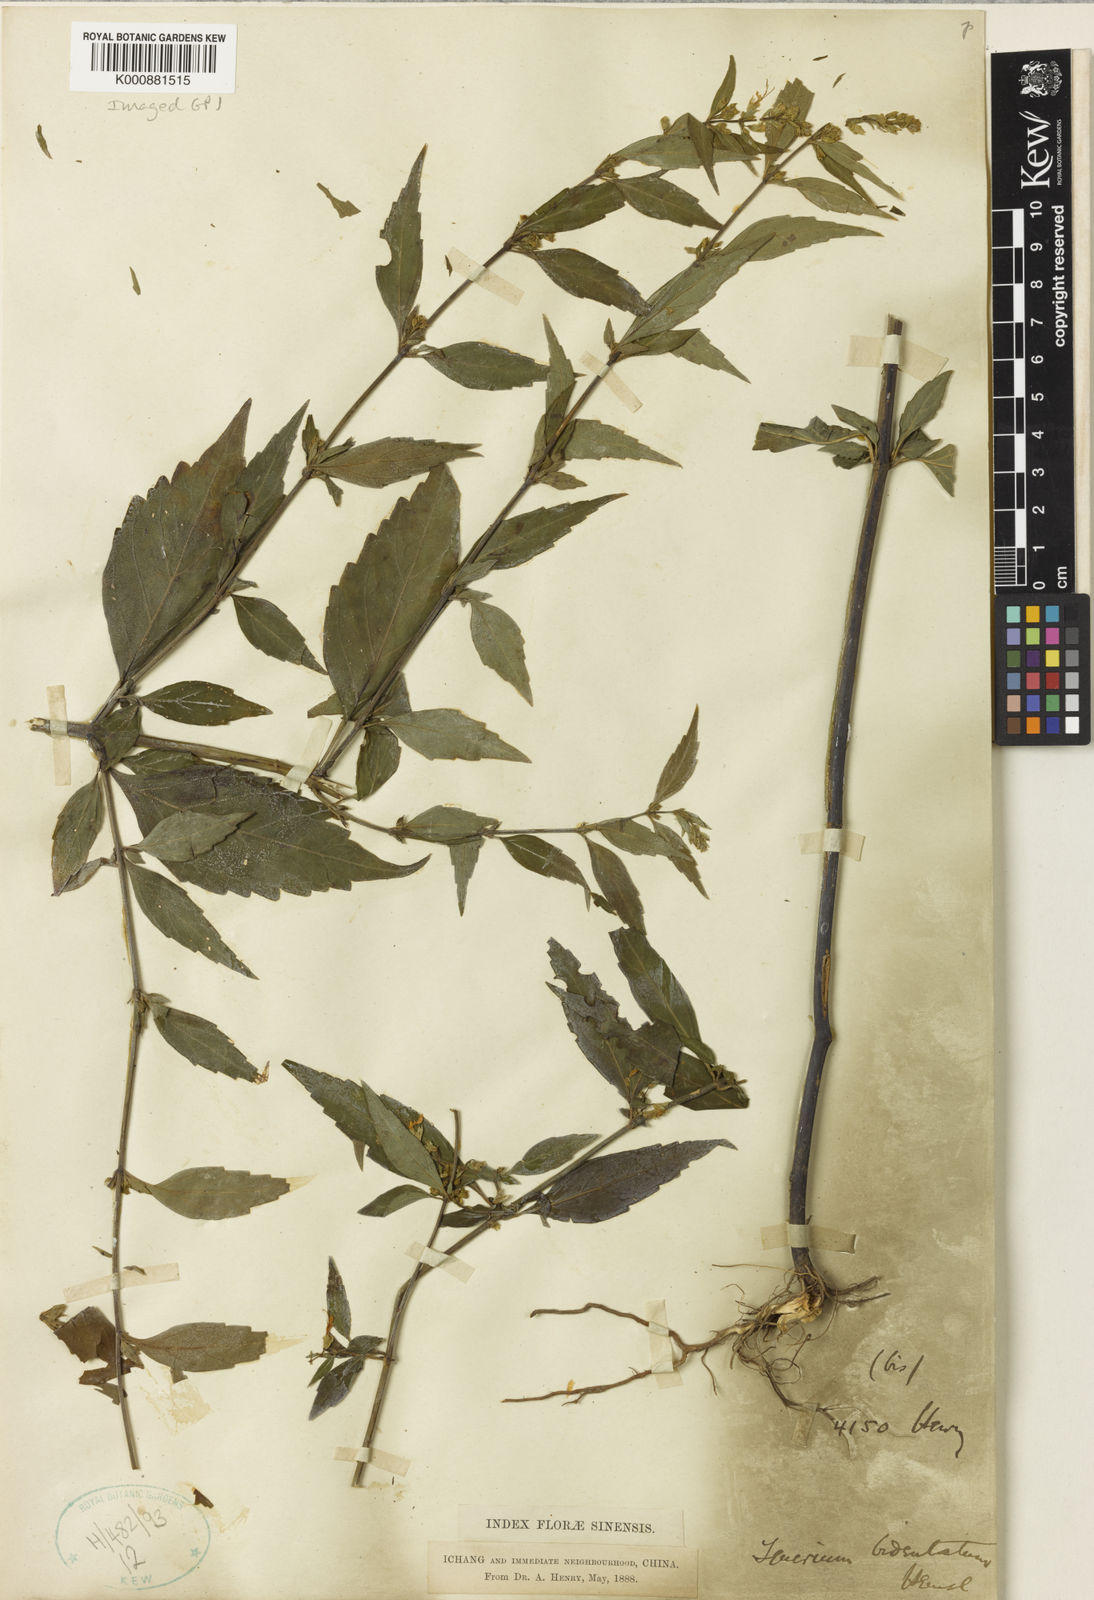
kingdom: Plantae
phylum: Tracheophyta
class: Magnoliopsida
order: Lamiales
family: Lamiaceae
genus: Teucrium
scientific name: Teucrium bidentatum
